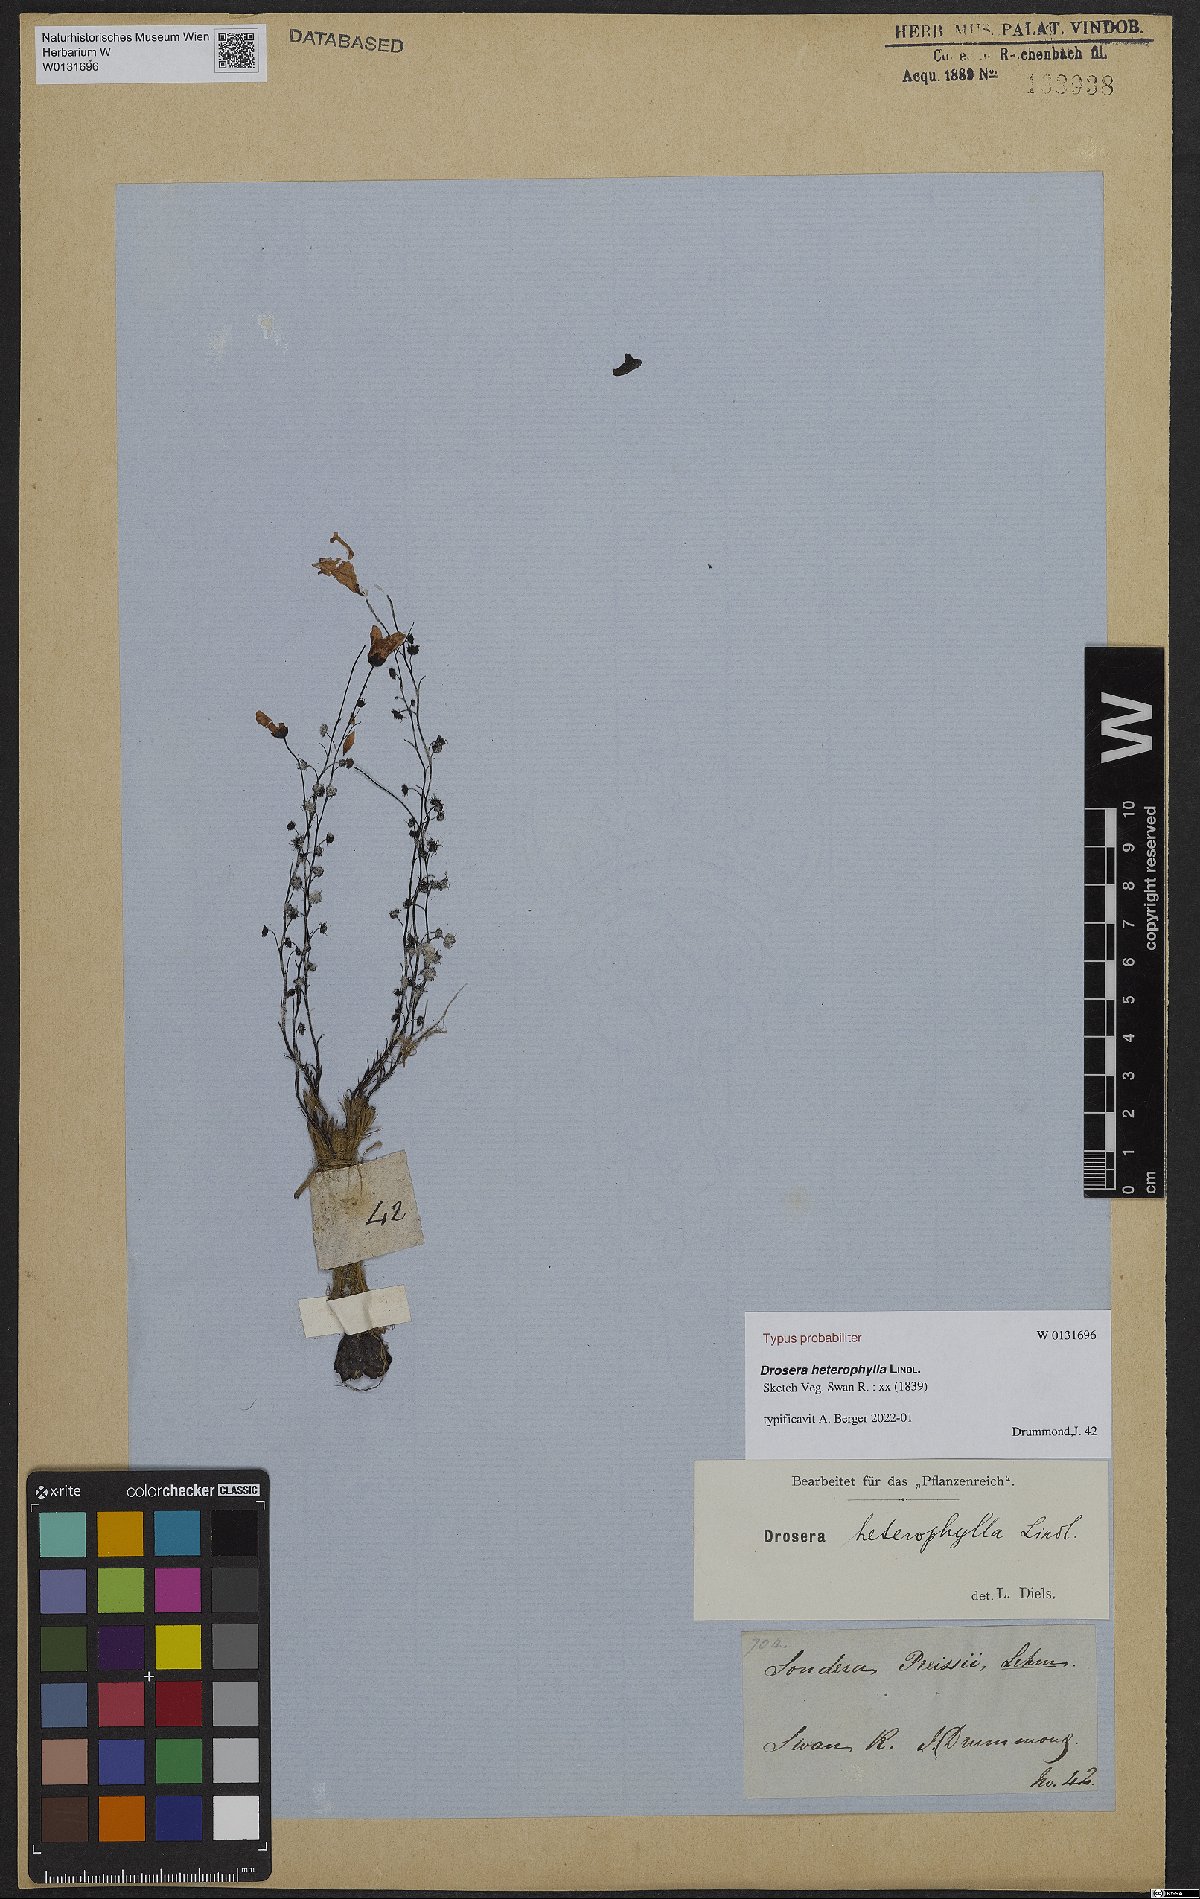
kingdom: Plantae
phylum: Tracheophyta
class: Magnoliopsida
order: Caryophyllales
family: Droseraceae
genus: Drosera
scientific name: Drosera heterophylla
